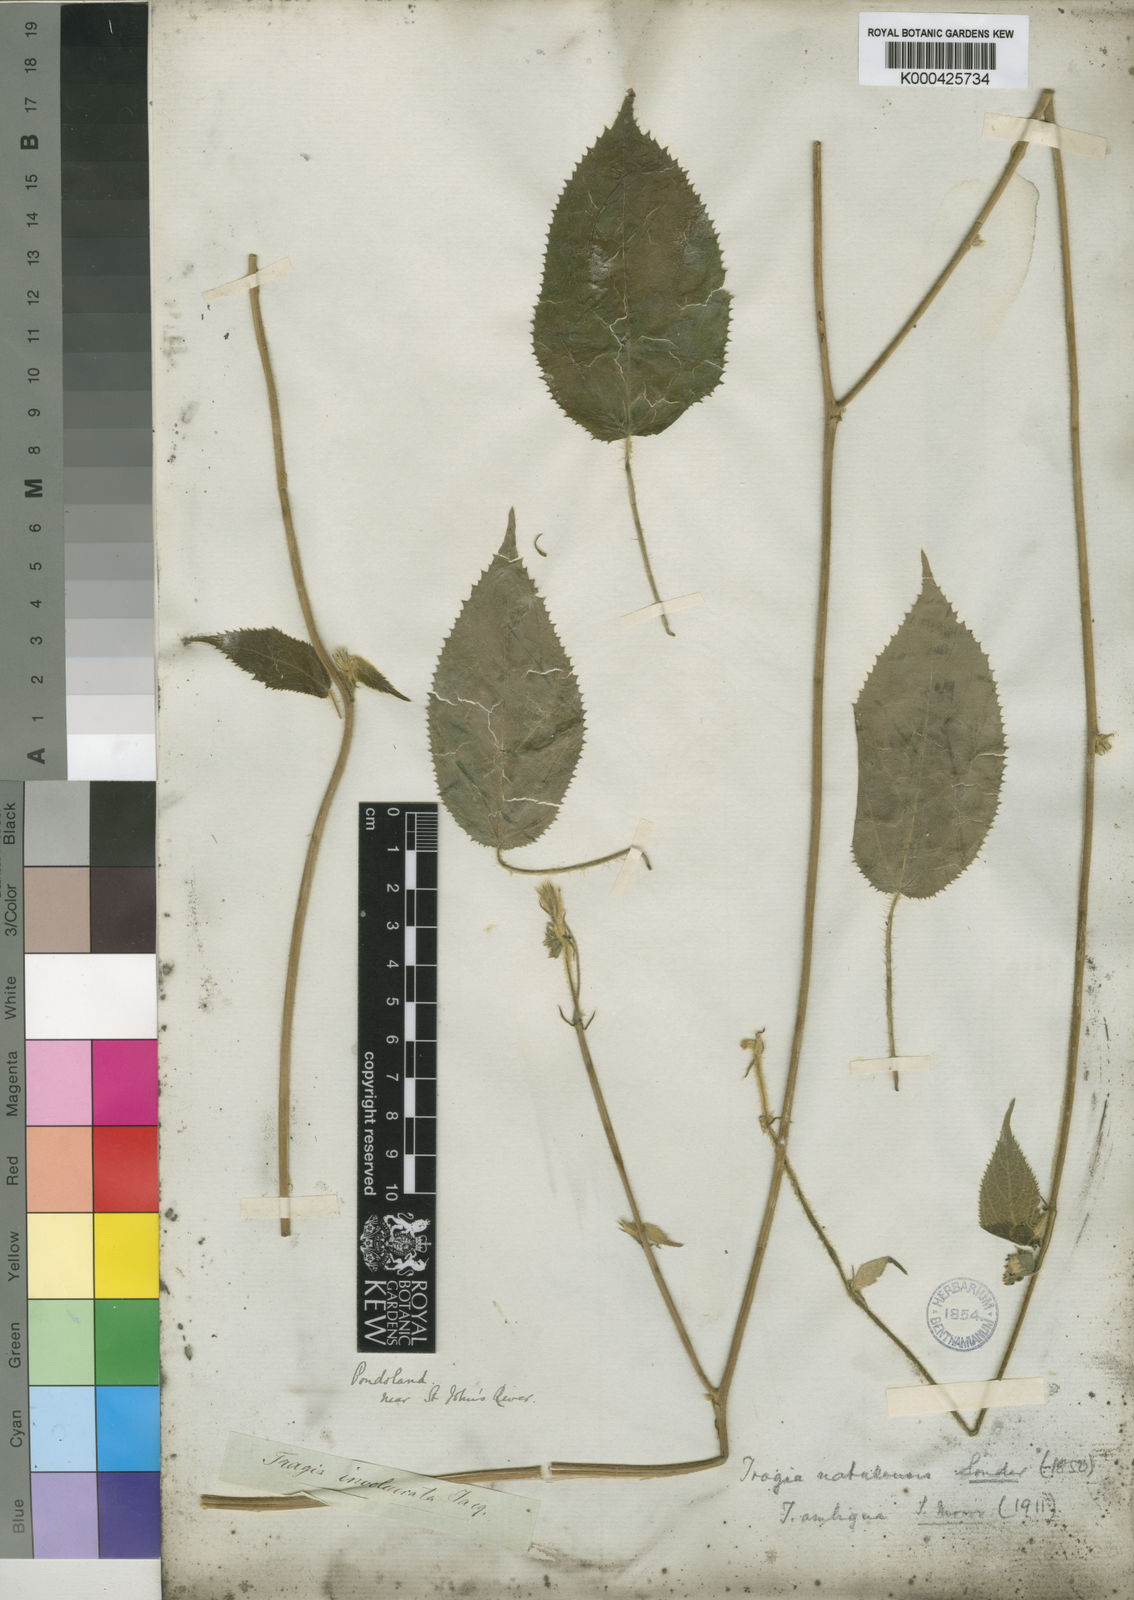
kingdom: Plantae
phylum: Tracheophyta
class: Magnoliopsida
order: Malpighiales
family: Euphorbiaceae
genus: Tragiella
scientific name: Tragiella natalensis
